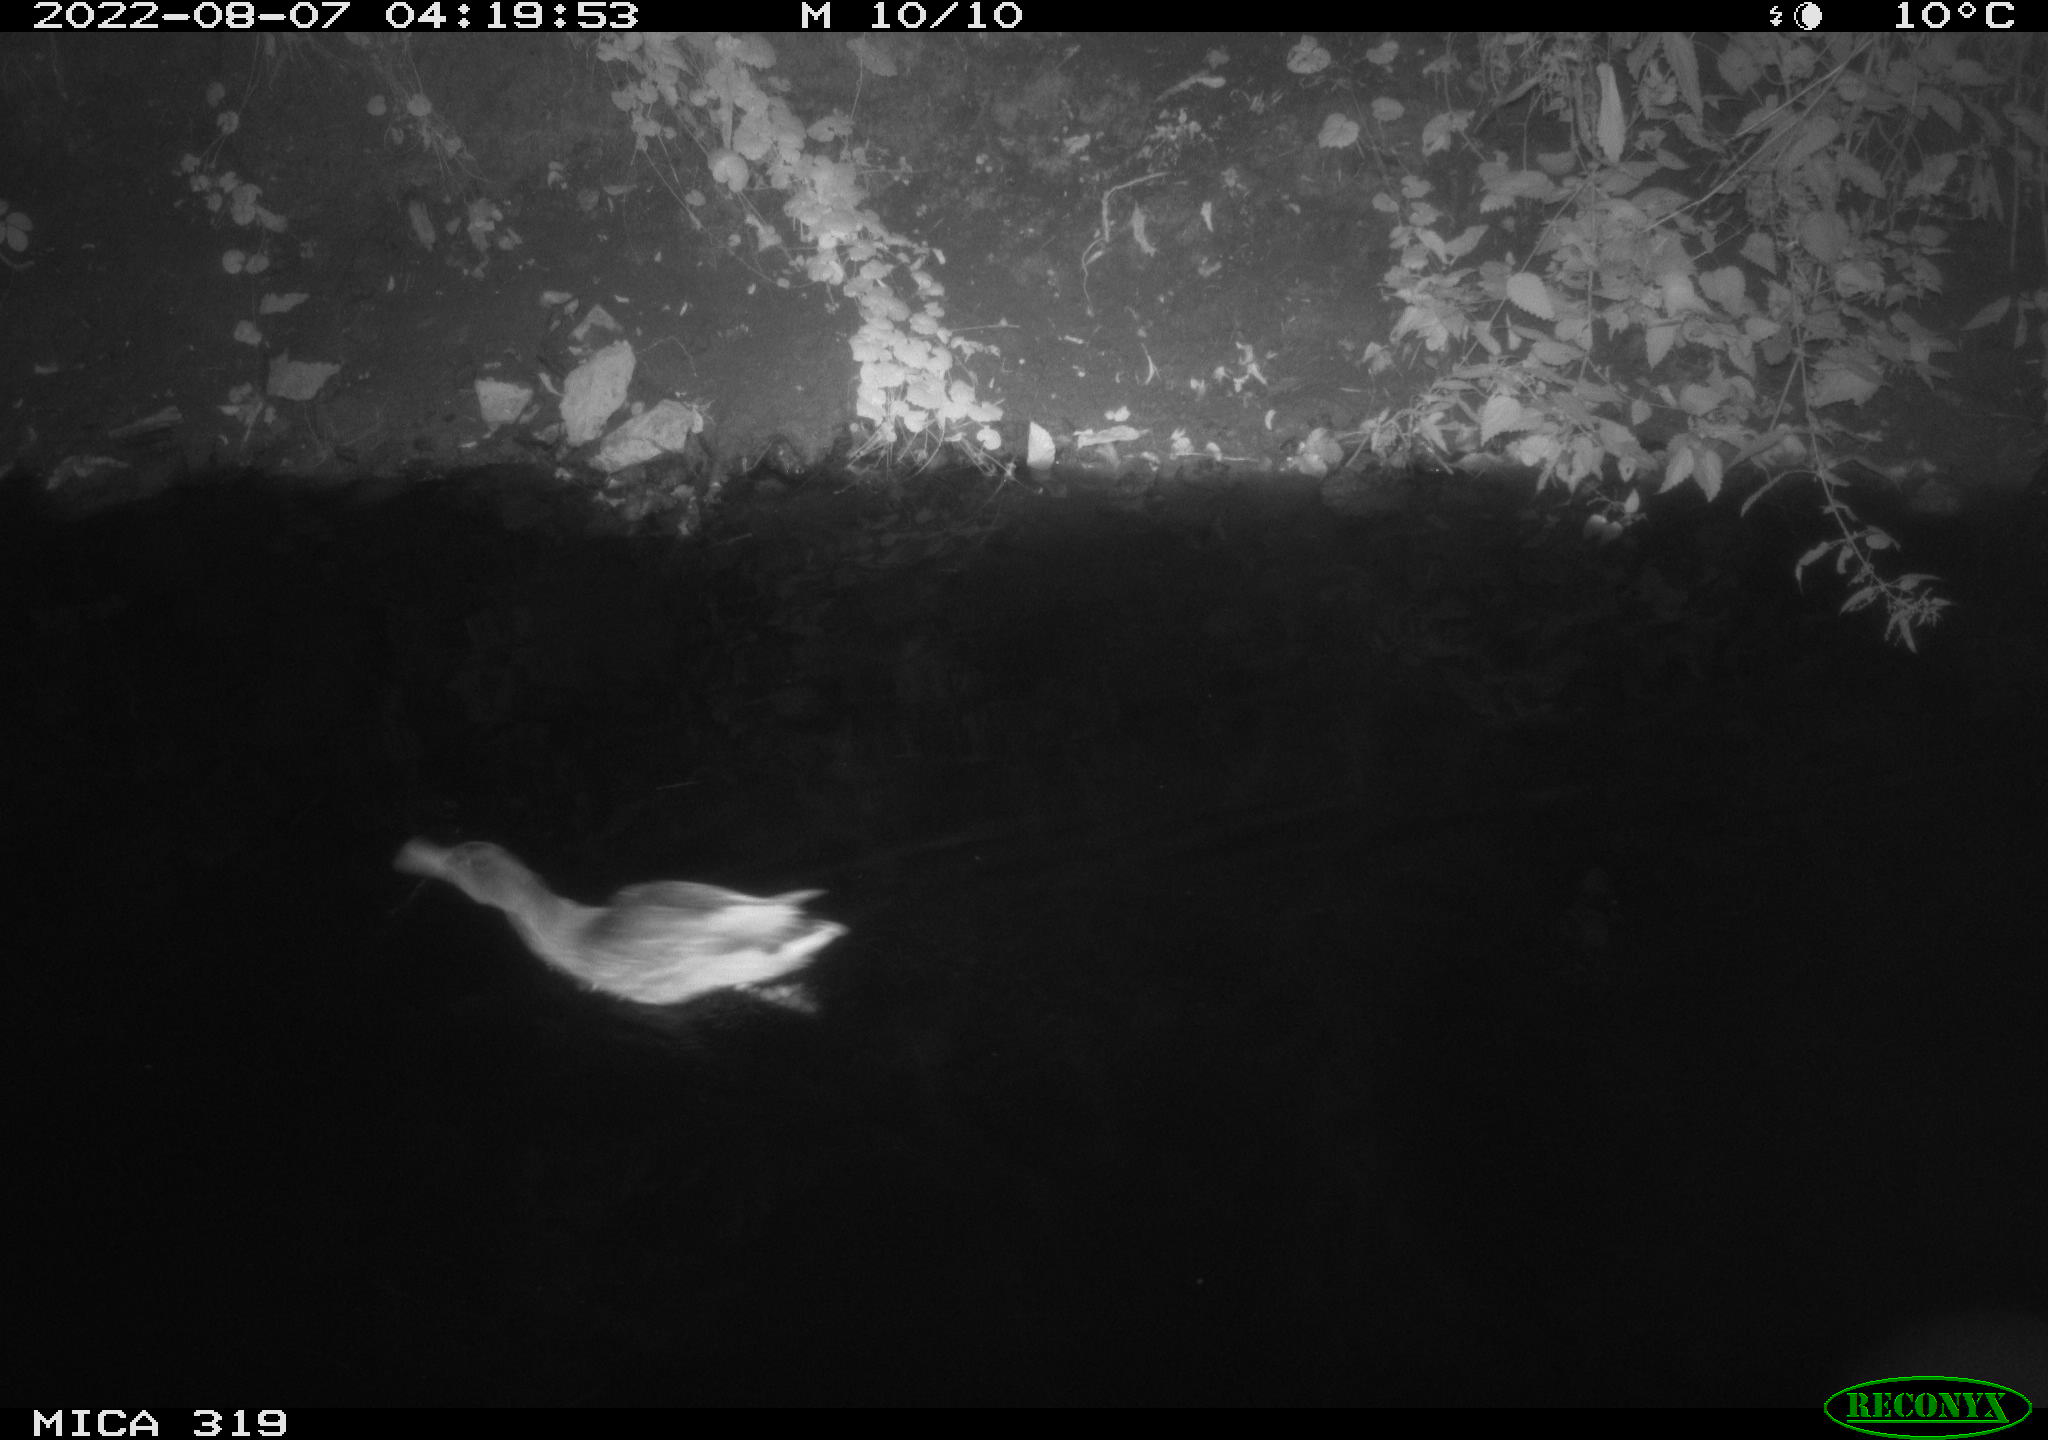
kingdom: Animalia
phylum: Chordata
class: Aves
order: Anseriformes
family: Anatidae
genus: Anas
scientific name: Anas
